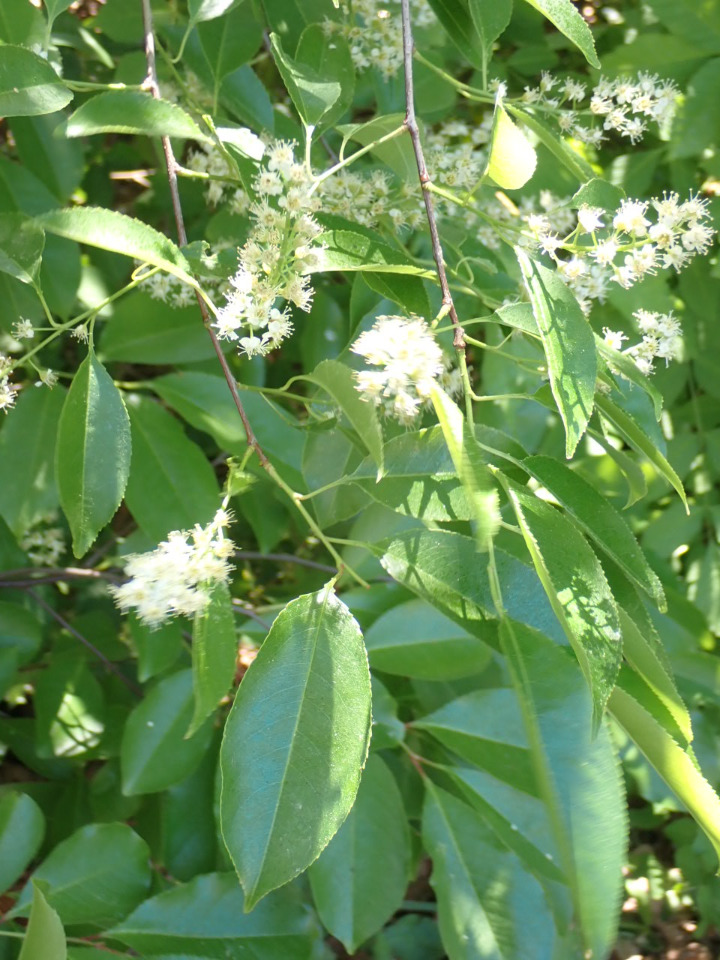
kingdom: Plantae
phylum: Tracheophyta
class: Magnoliopsida
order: Rosales
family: Rosaceae
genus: Prunus
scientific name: Prunus serotina
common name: Glansbladet hæg
